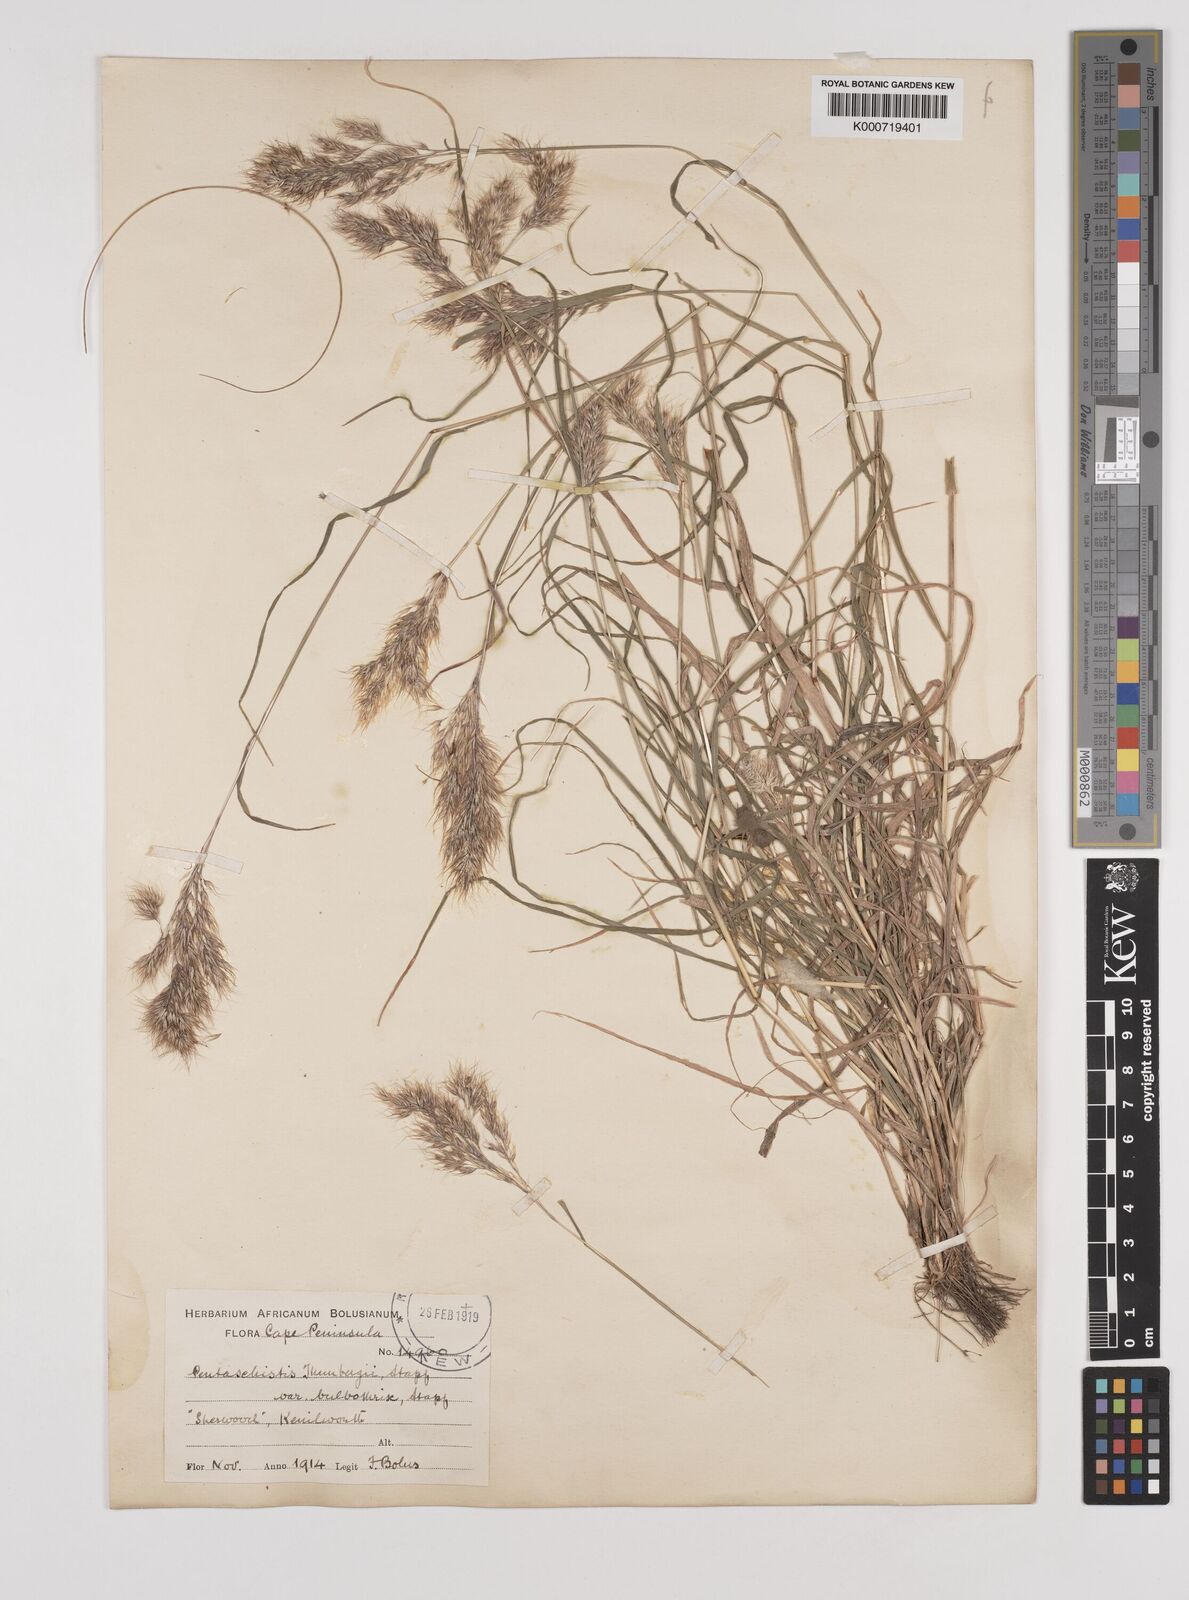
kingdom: Plantae
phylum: Tracheophyta
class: Liliopsida
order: Poales
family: Poaceae
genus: Pentameris
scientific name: Pentameris triseta
